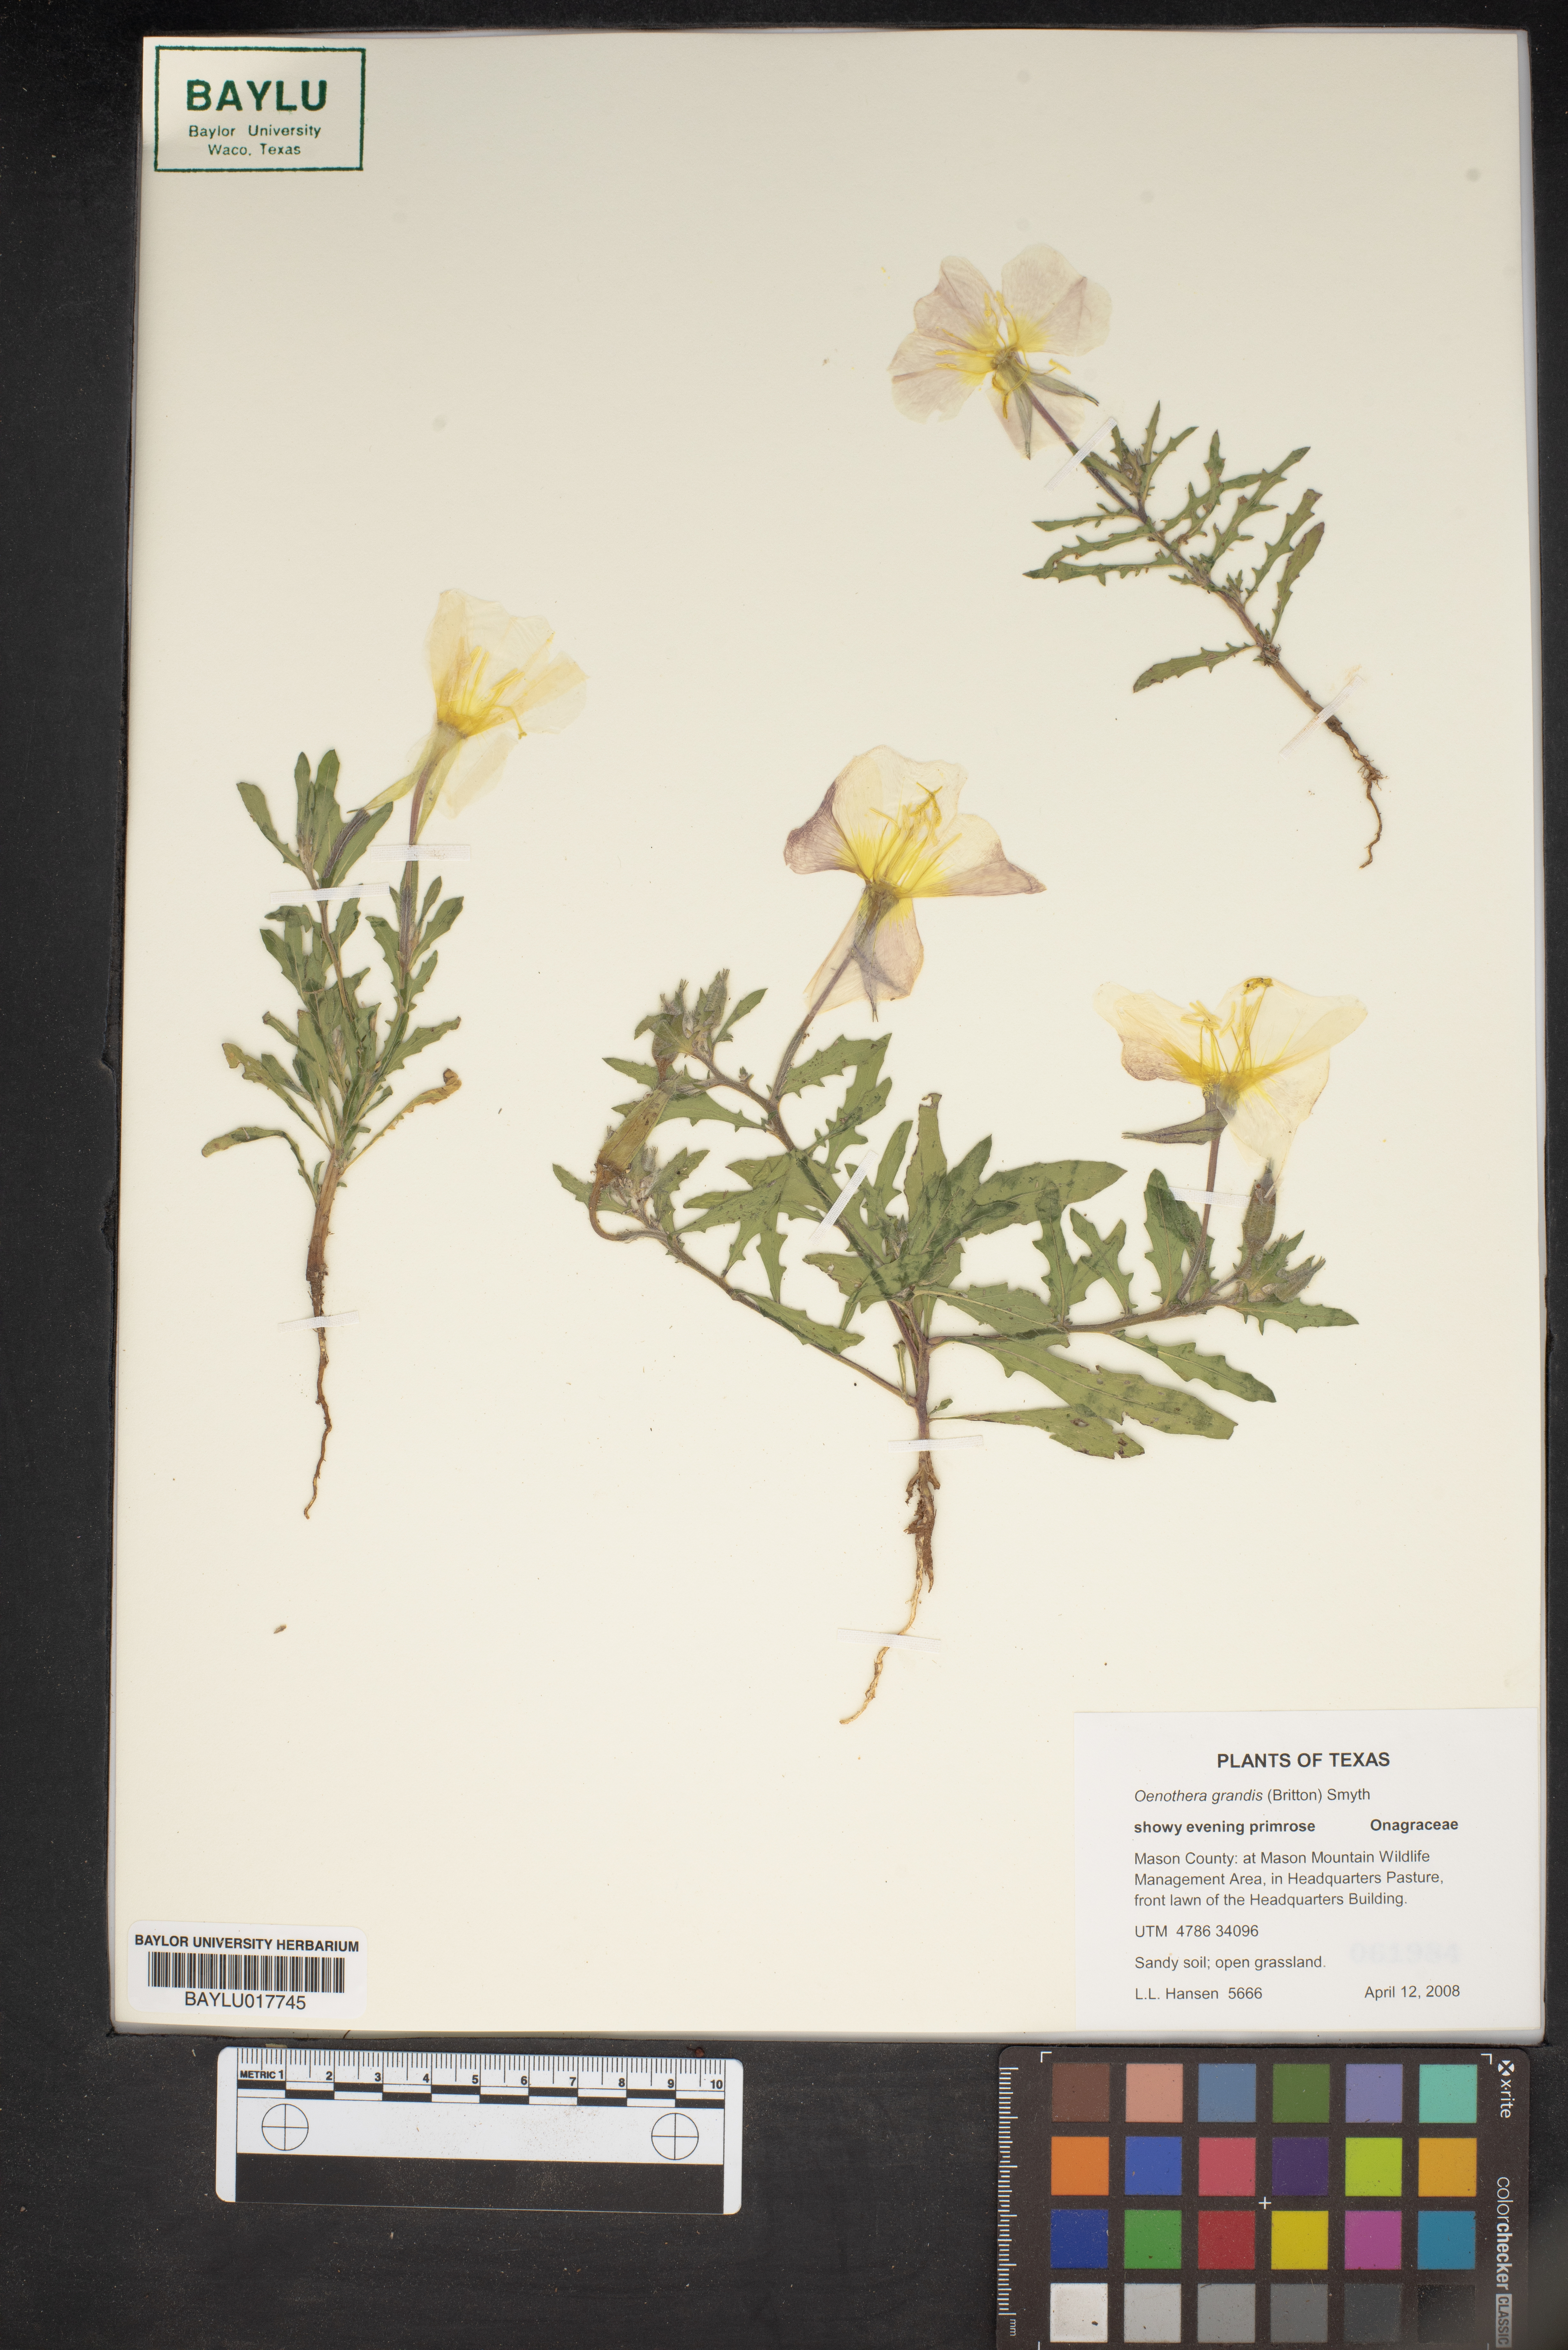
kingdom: Plantae
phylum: Tracheophyta
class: Magnoliopsida
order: Myrtales
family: Onagraceae
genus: Oenothera
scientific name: Oenothera grandis
